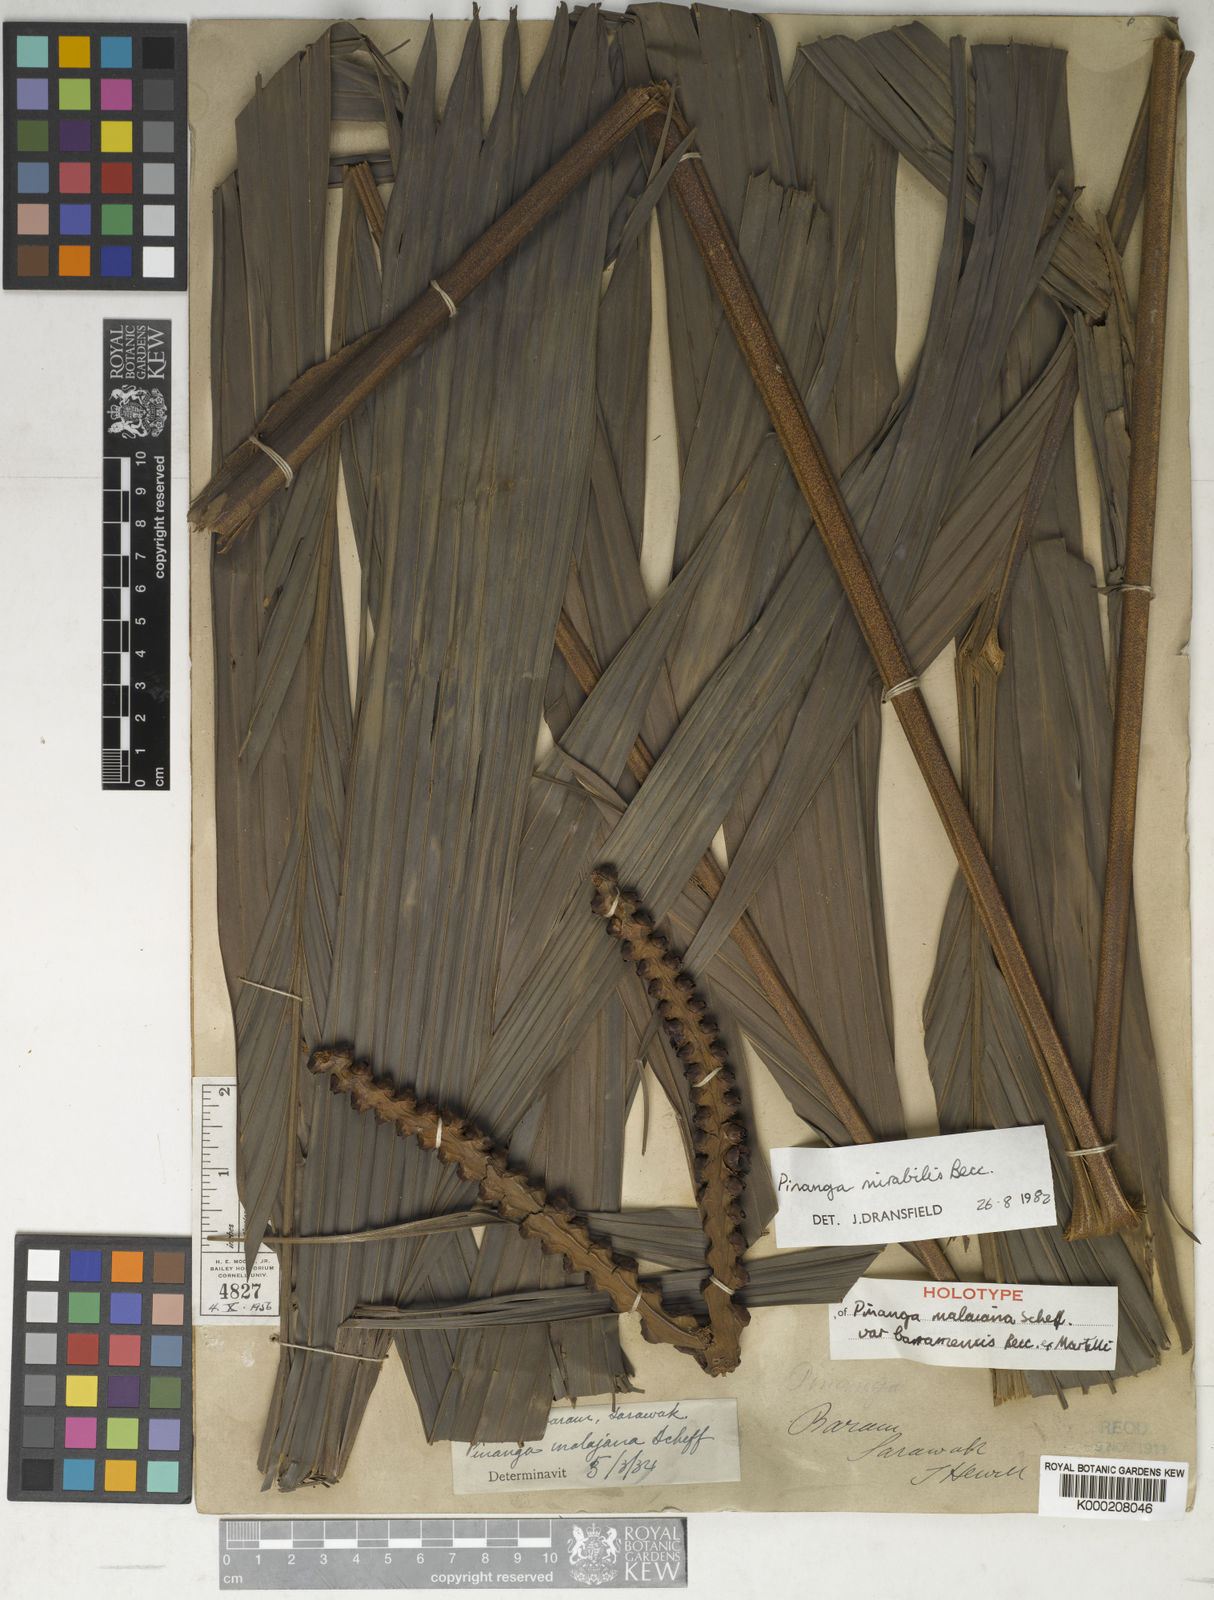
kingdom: Plantae
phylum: Tracheophyta
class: Liliopsida
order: Arecales
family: Arecaceae
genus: Pinanga
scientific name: Pinanga mirabilis
